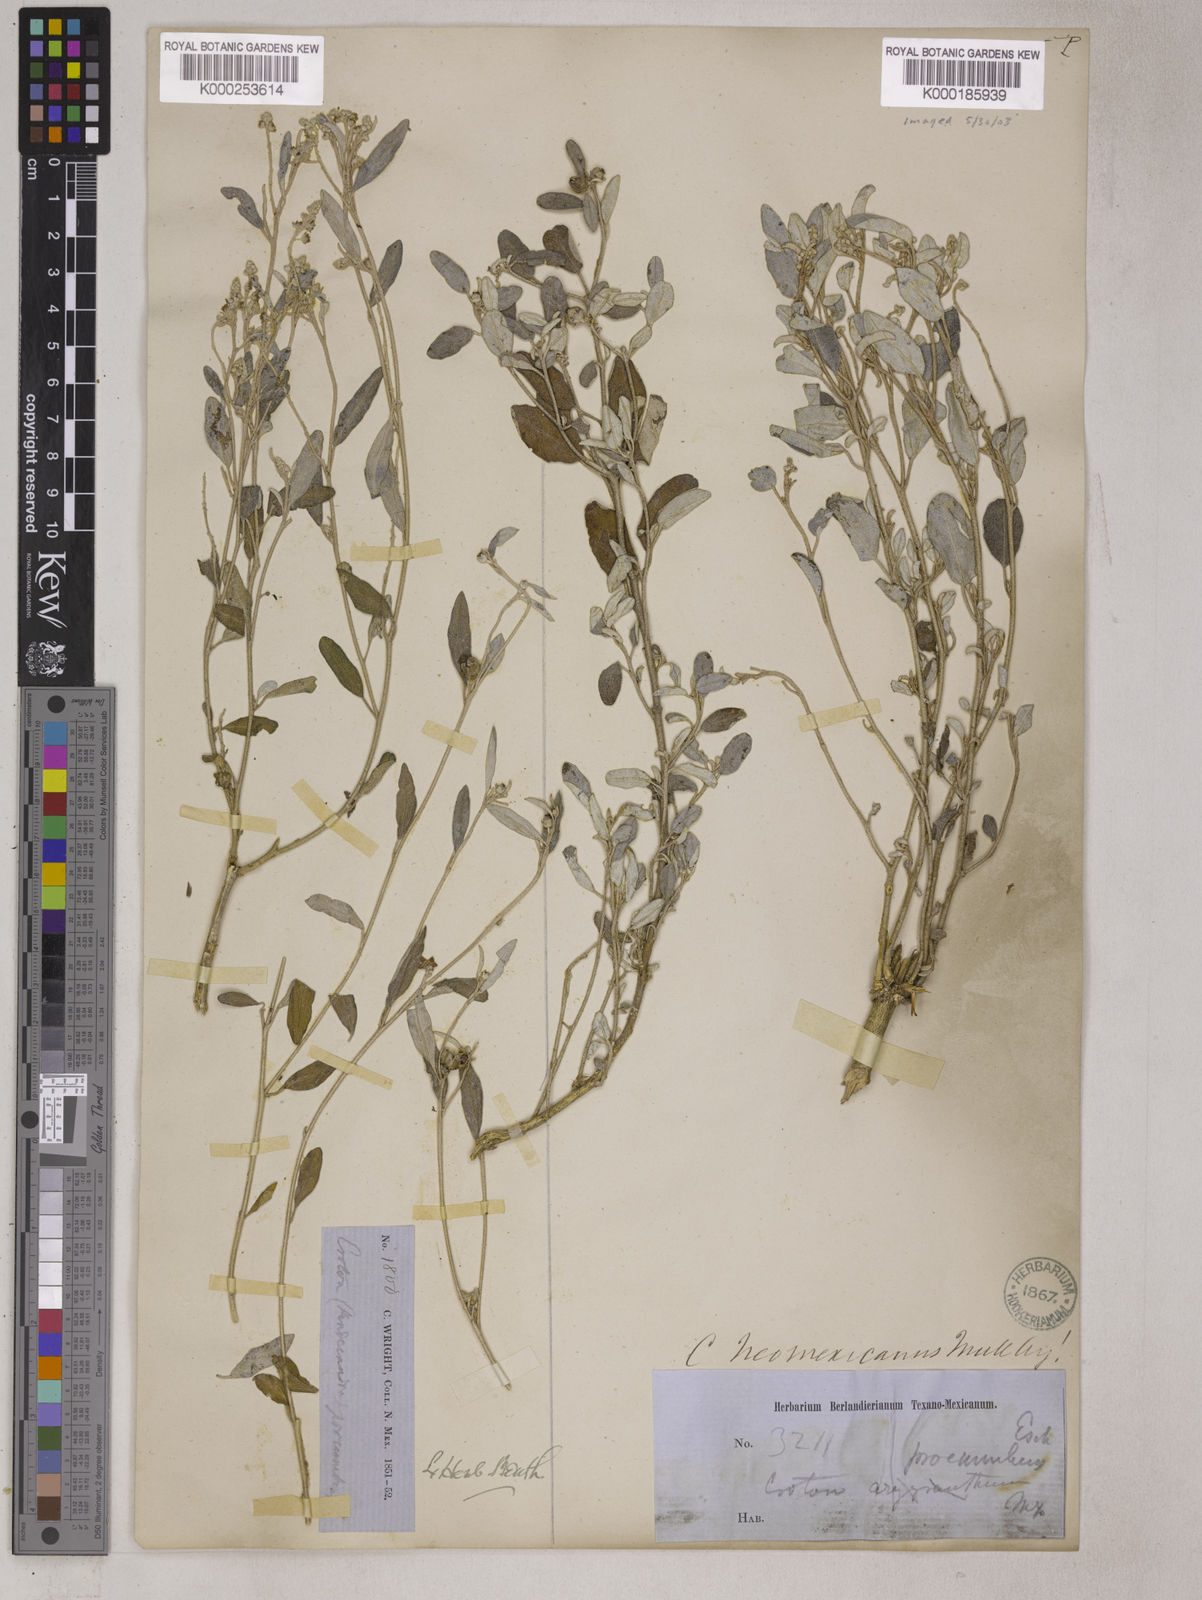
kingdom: Plantae
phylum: Tracheophyta
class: Magnoliopsida
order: Malpighiales
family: Euphorbiaceae
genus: Croton
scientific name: Croton dioicus
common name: Grassland croton
